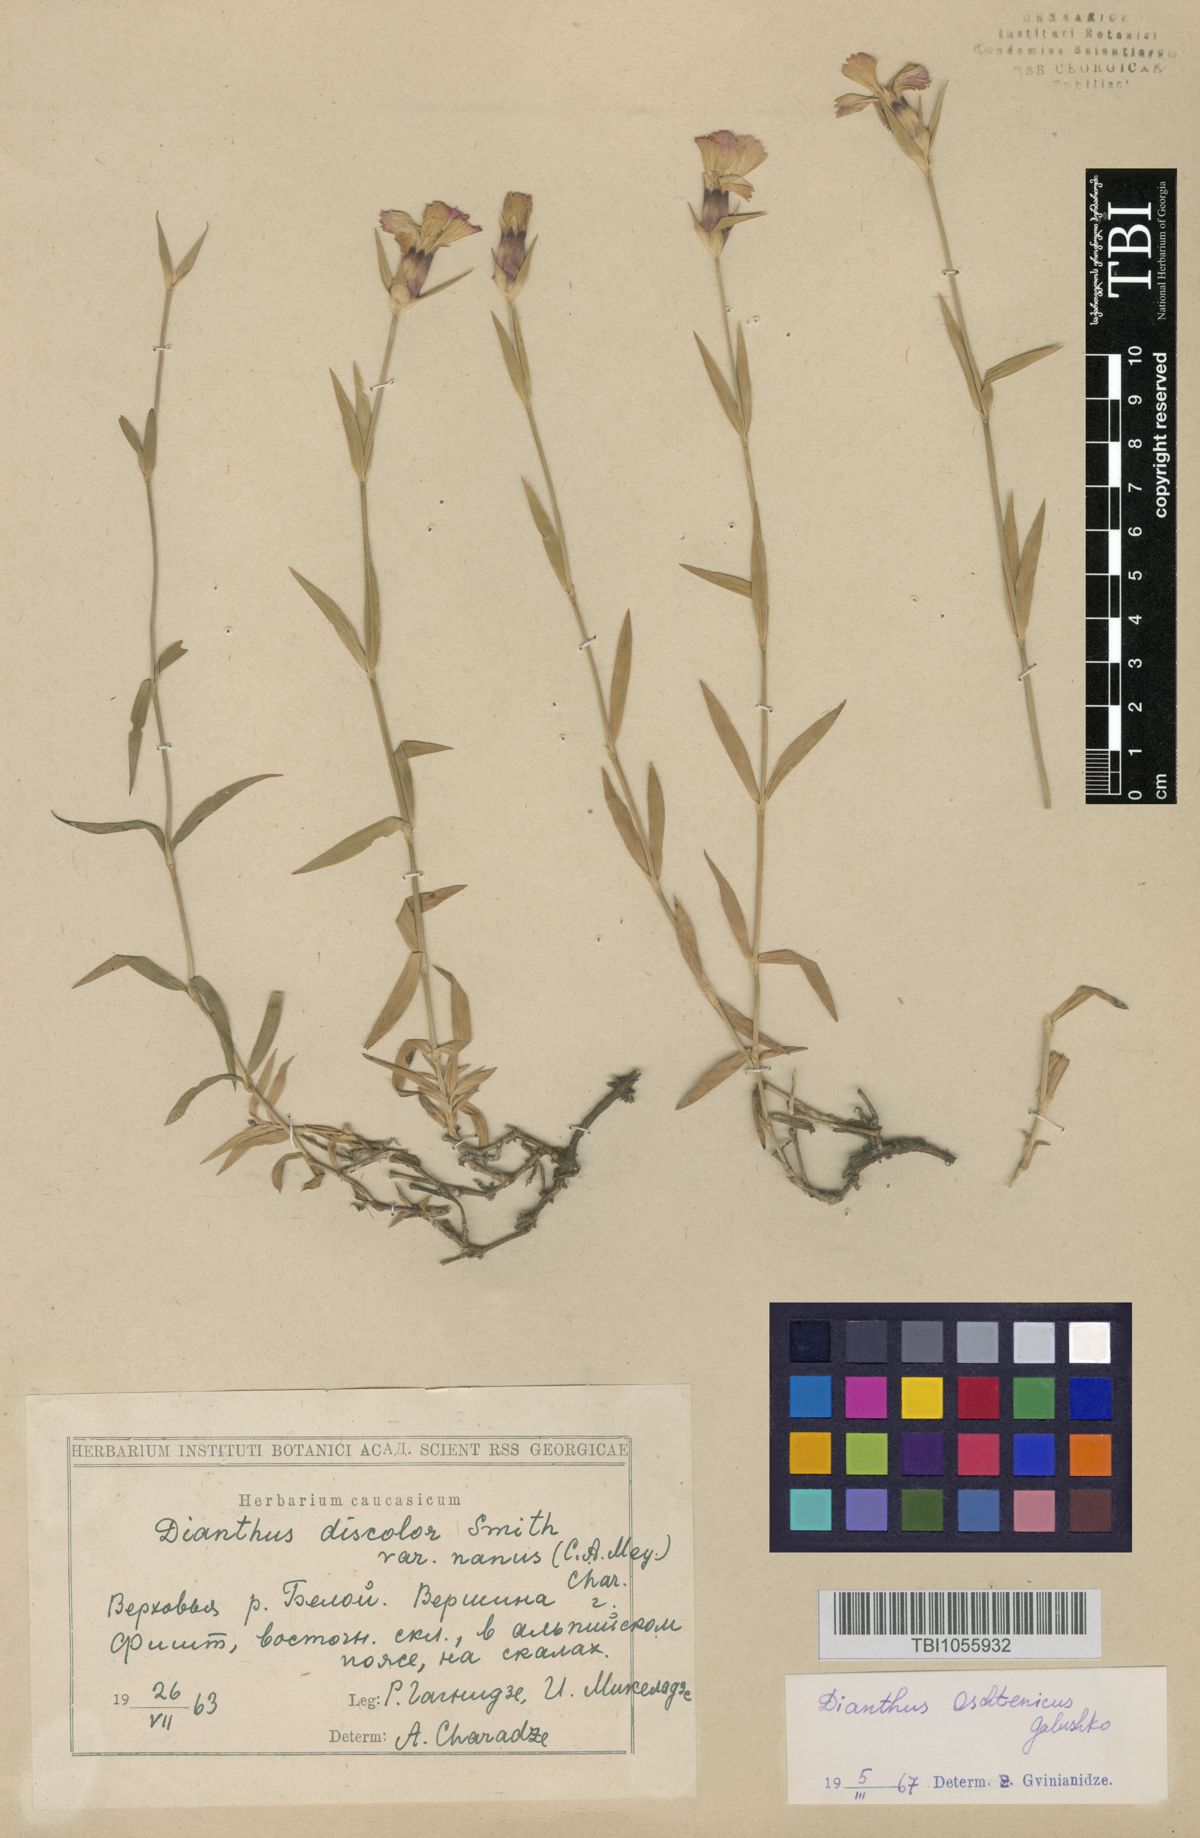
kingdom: Plantae
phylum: Tracheophyta
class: Magnoliopsida
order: Caryophyllales
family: Caryophyllaceae
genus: Dianthus
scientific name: Dianthus
